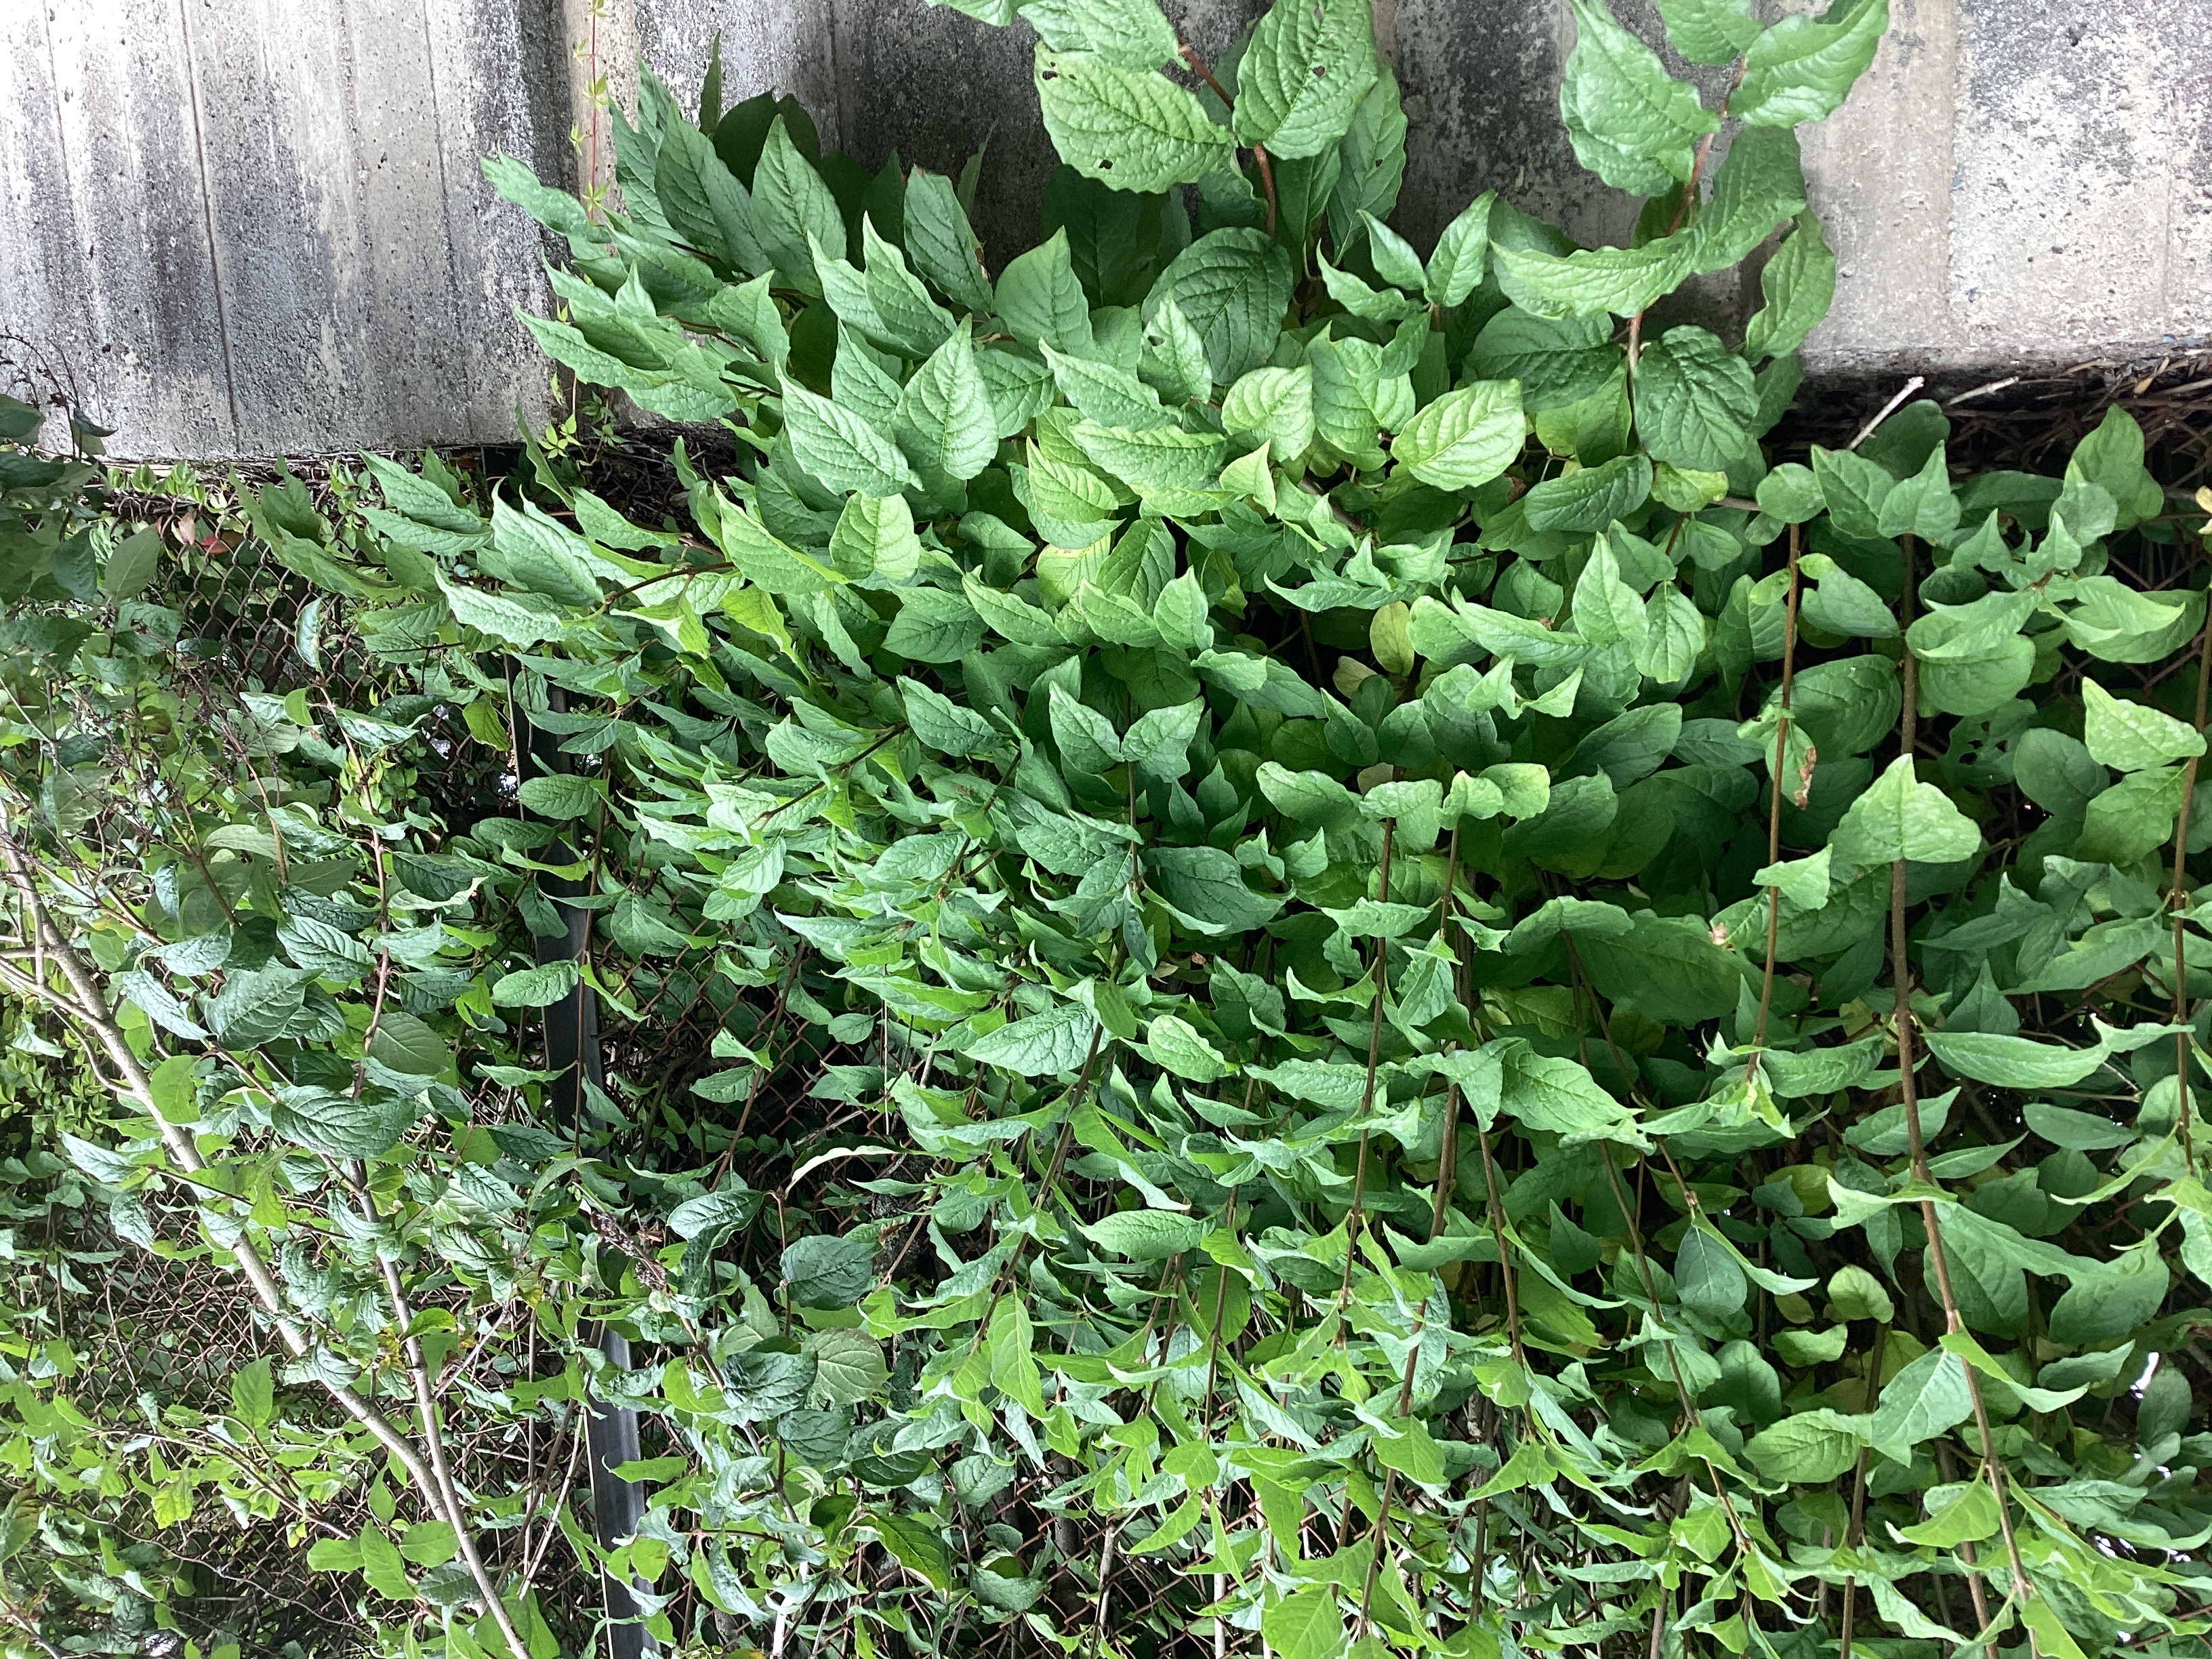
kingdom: Plantae
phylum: Tracheophyta
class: Magnoliopsida
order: Lamiales
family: Oleaceae
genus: Syringa
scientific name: Syringa josikaea
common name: ungarnsyrin
